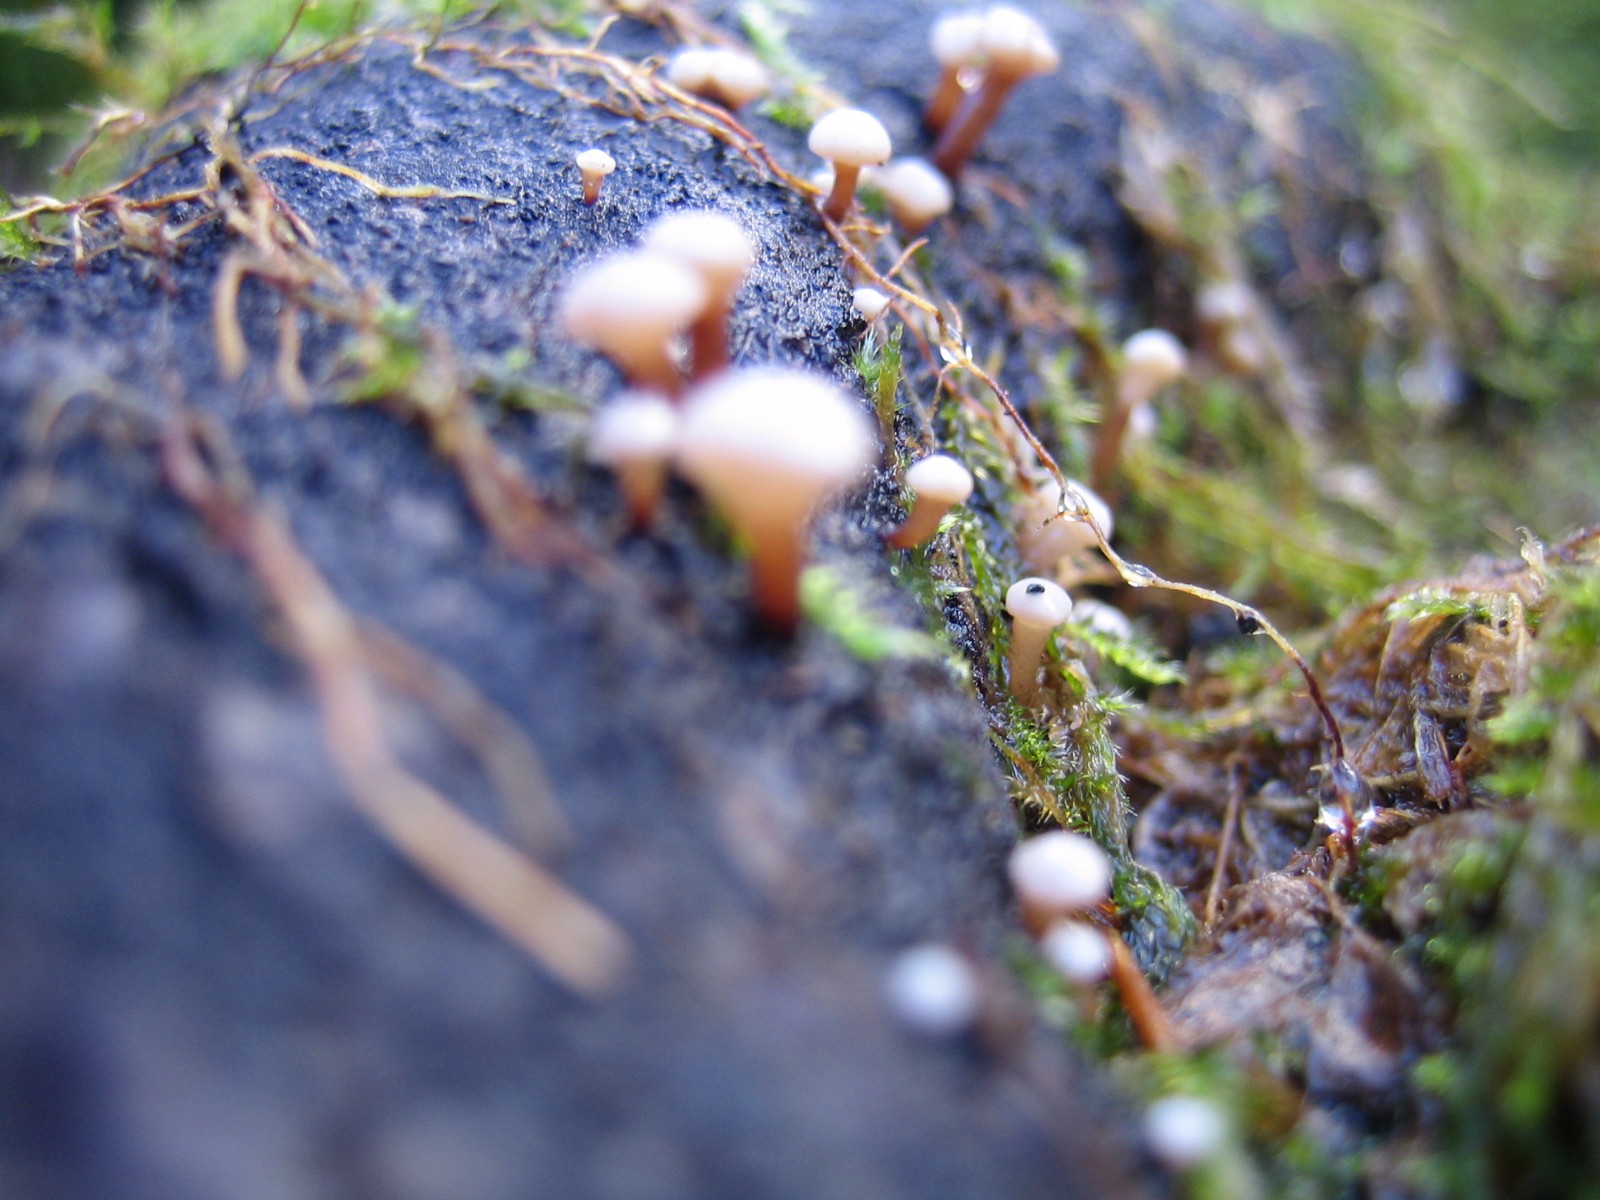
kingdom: Fungi
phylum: Ascomycota
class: Leotiomycetes
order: Helotiales
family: Gelatinodiscaceae
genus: Ascocoryne
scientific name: Ascocoryne albida
